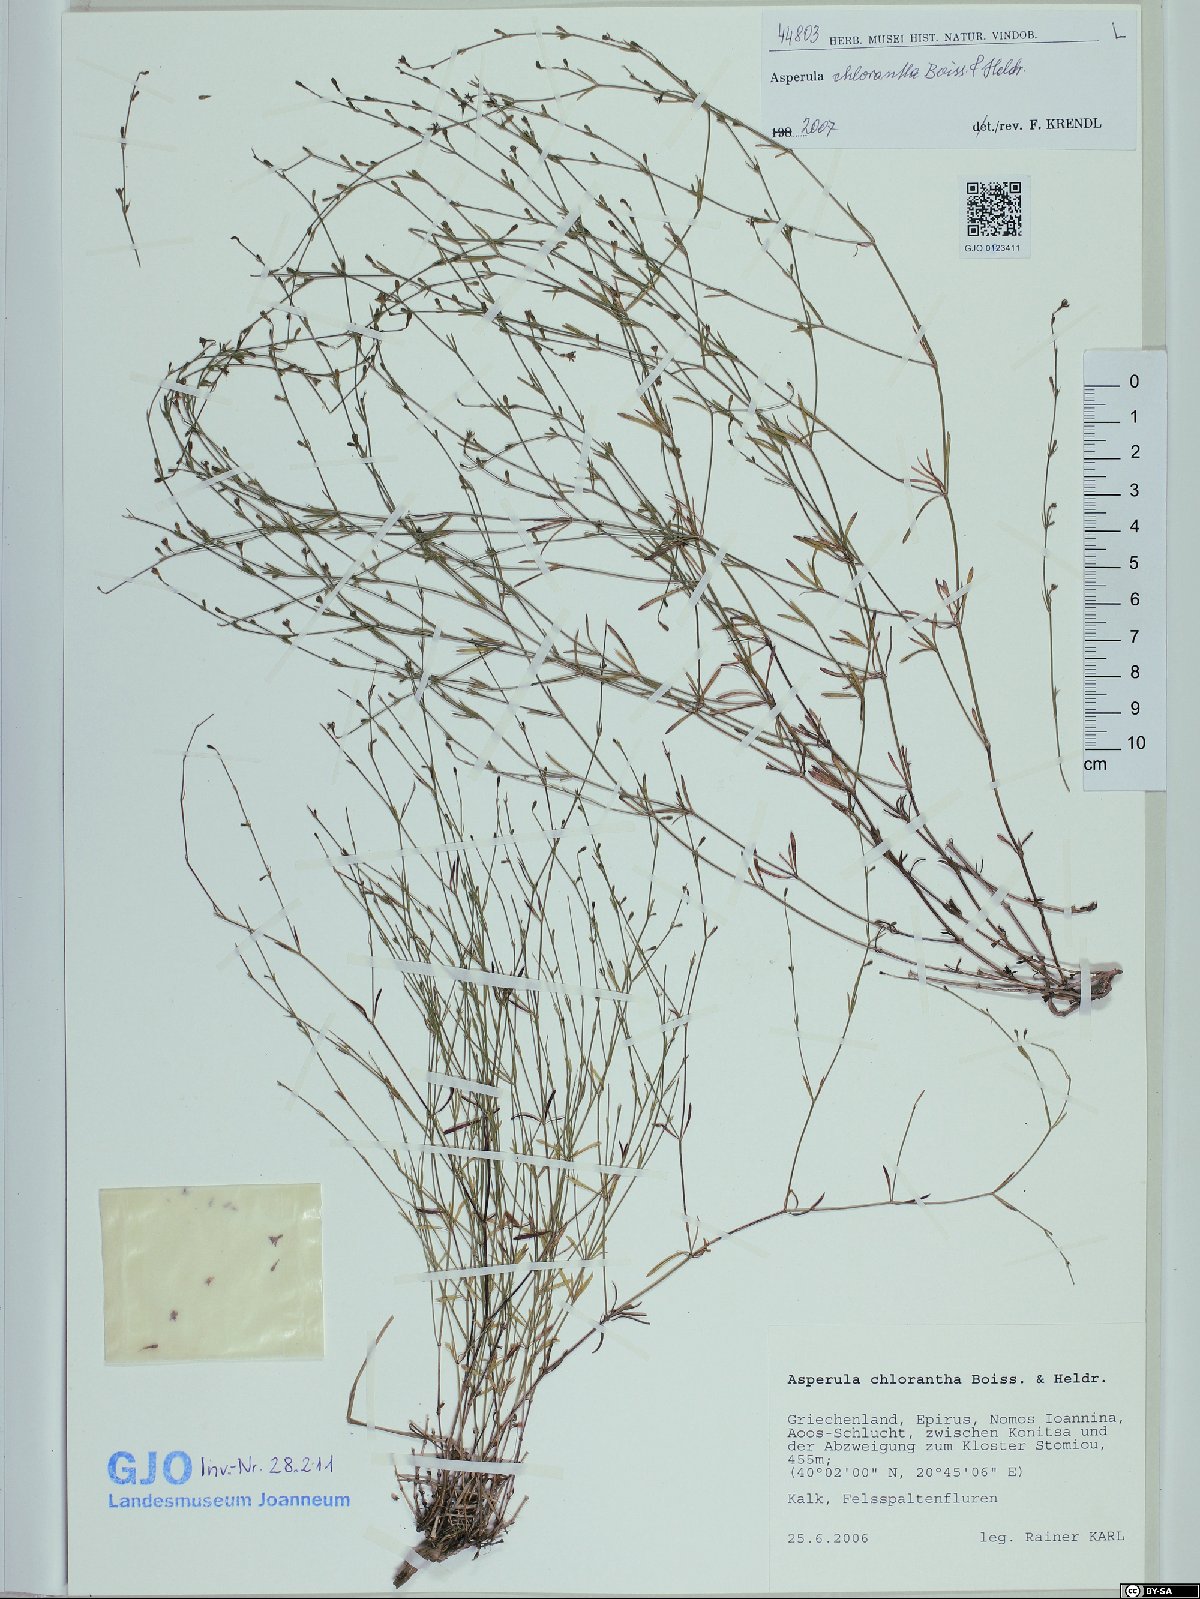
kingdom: Plantae
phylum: Tracheophyta
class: Magnoliopsida
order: Gentianales
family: Rubiaceae
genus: Thliphthisa
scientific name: Thliphthisa chlorantha
